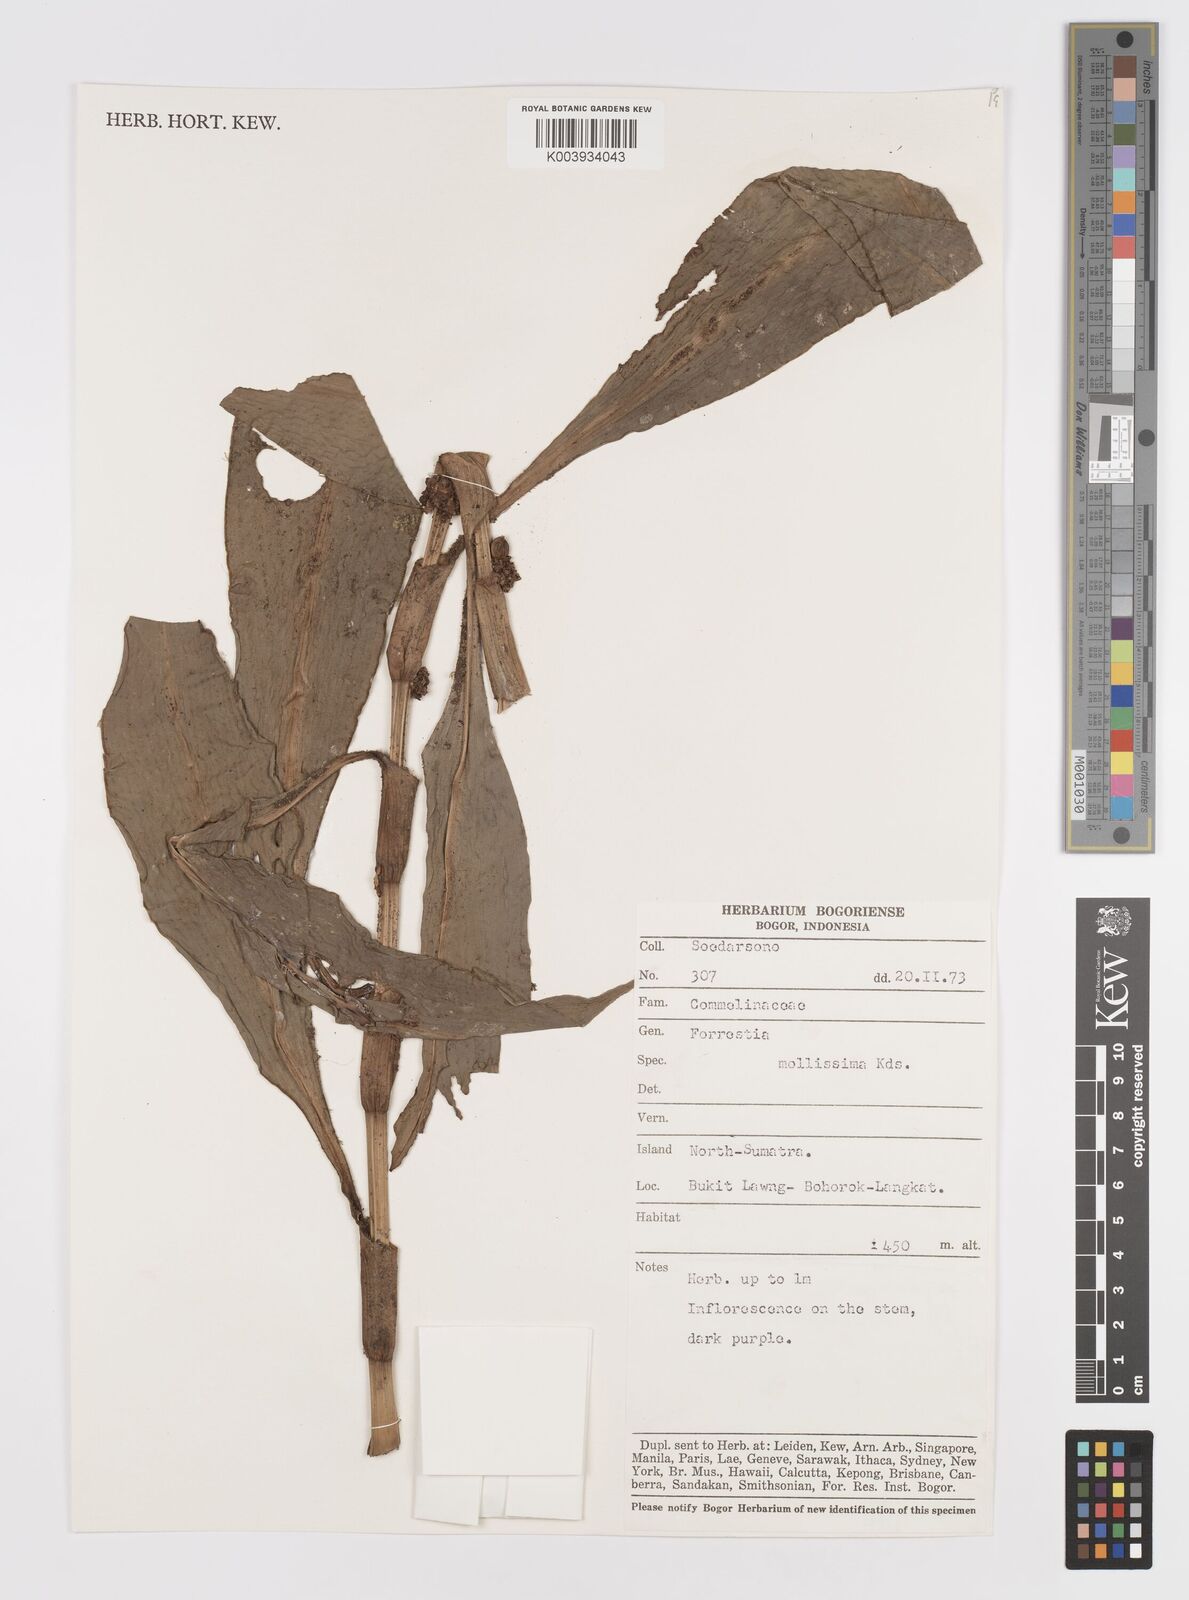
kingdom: Plantae
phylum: Tracheophyta
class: Liliopsida
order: Commelinales
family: Commelinaceae
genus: Amischotolype
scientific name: Amischotolype mollissima
